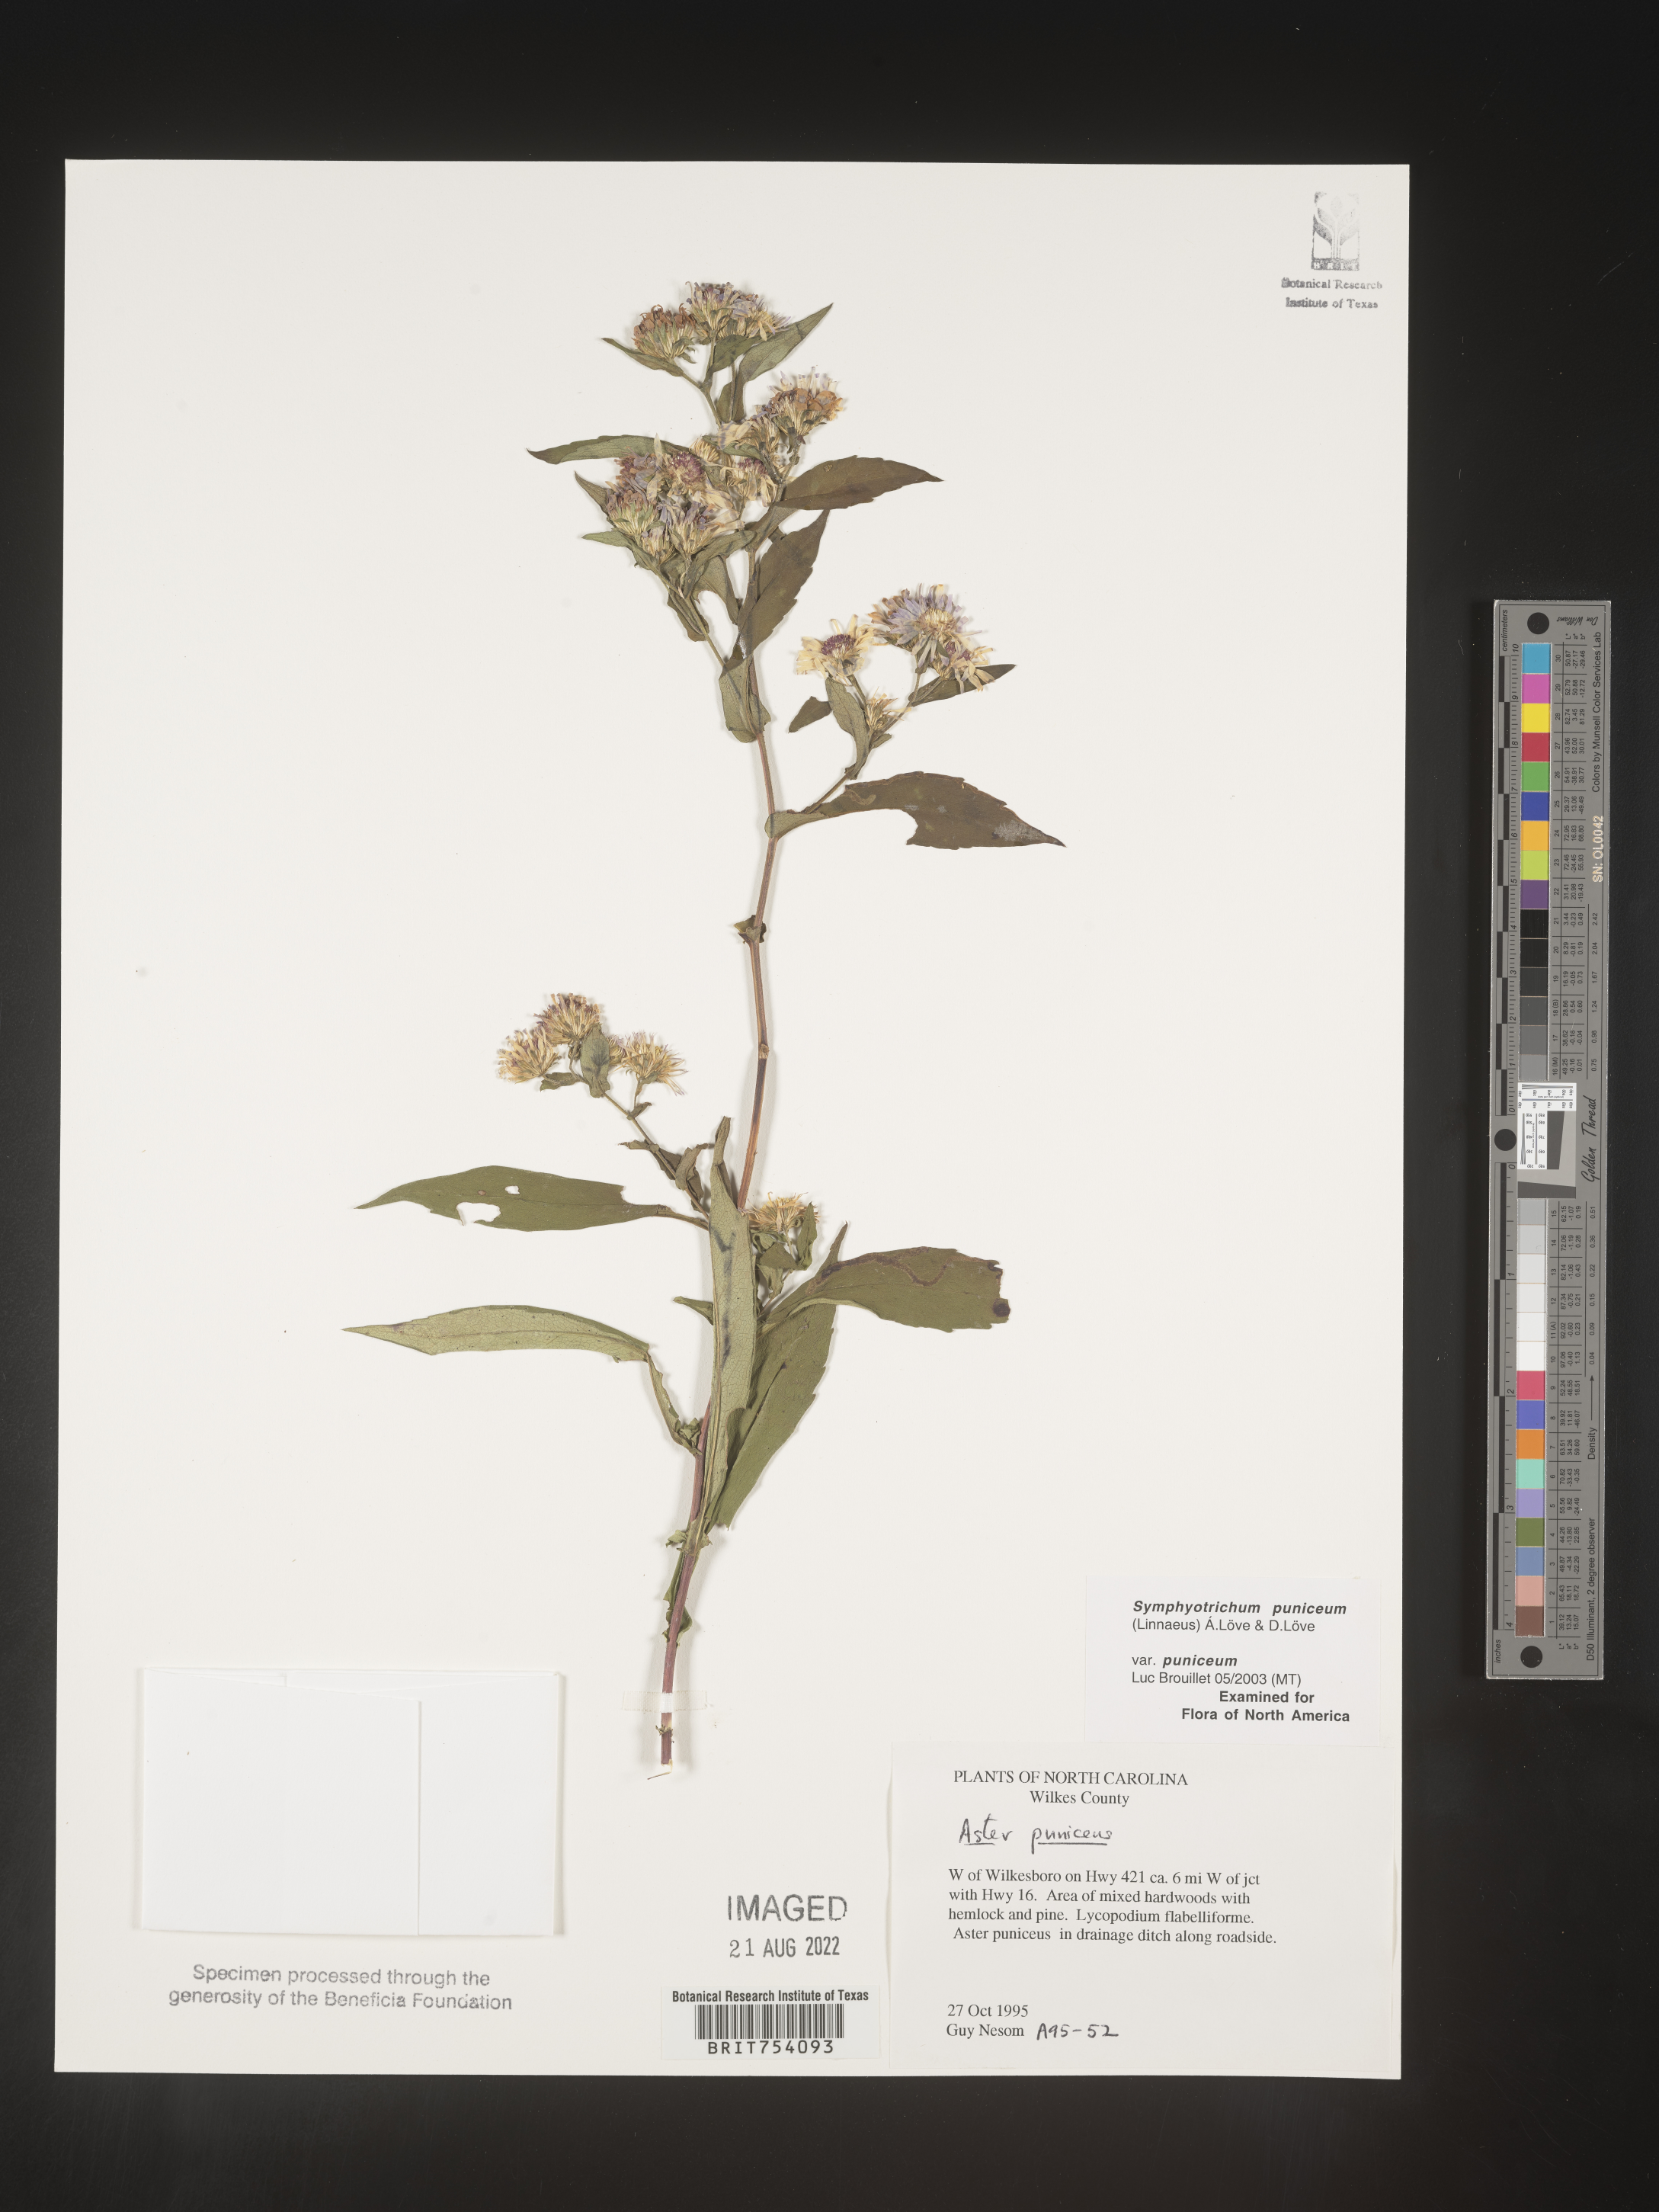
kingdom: Plantae
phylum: Tracheophyta
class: Magnoliopsida
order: Asterales
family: Asteraceae
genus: Symphyotrichum
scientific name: Symphyotrichum puniceum
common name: Bog aster
